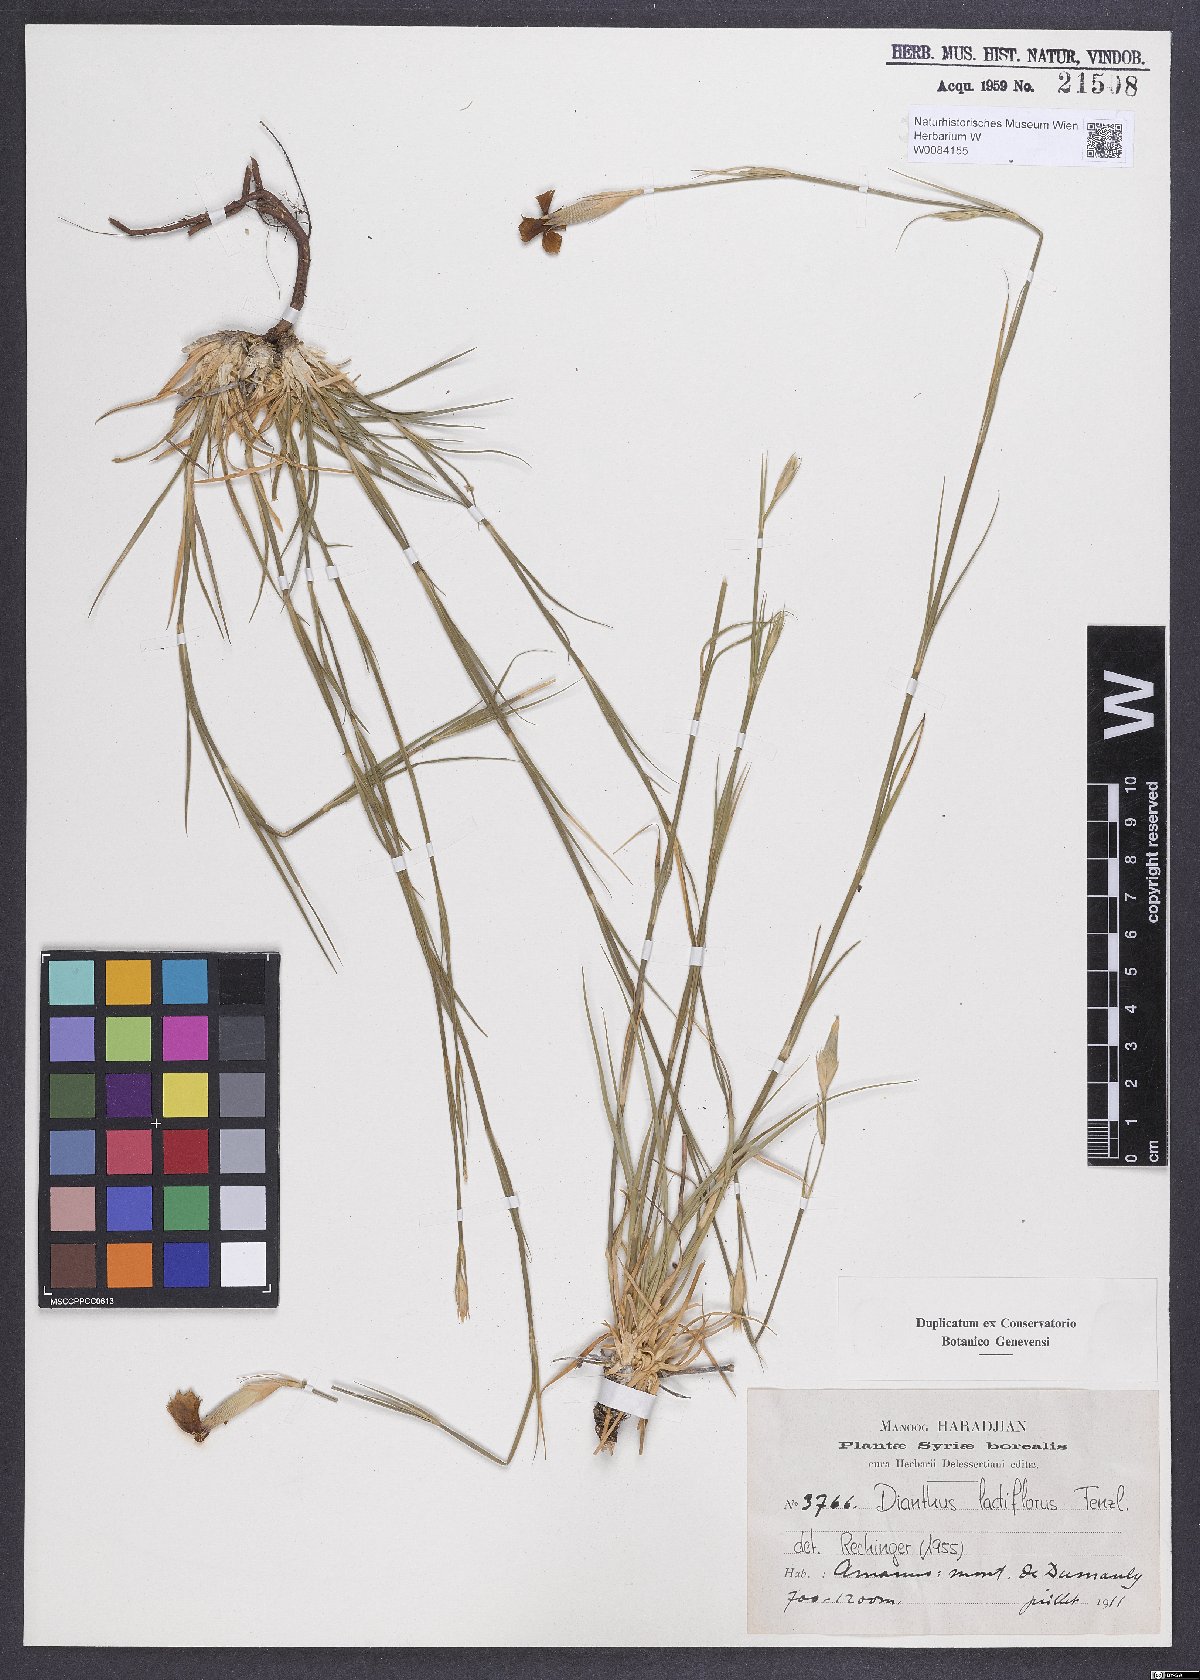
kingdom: Plantae
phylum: Tracheophyta
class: Magnoliopsida
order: Caryophyllales
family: Caryophyllaceae
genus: Dianthus
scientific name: Dianthus lactiflorus
